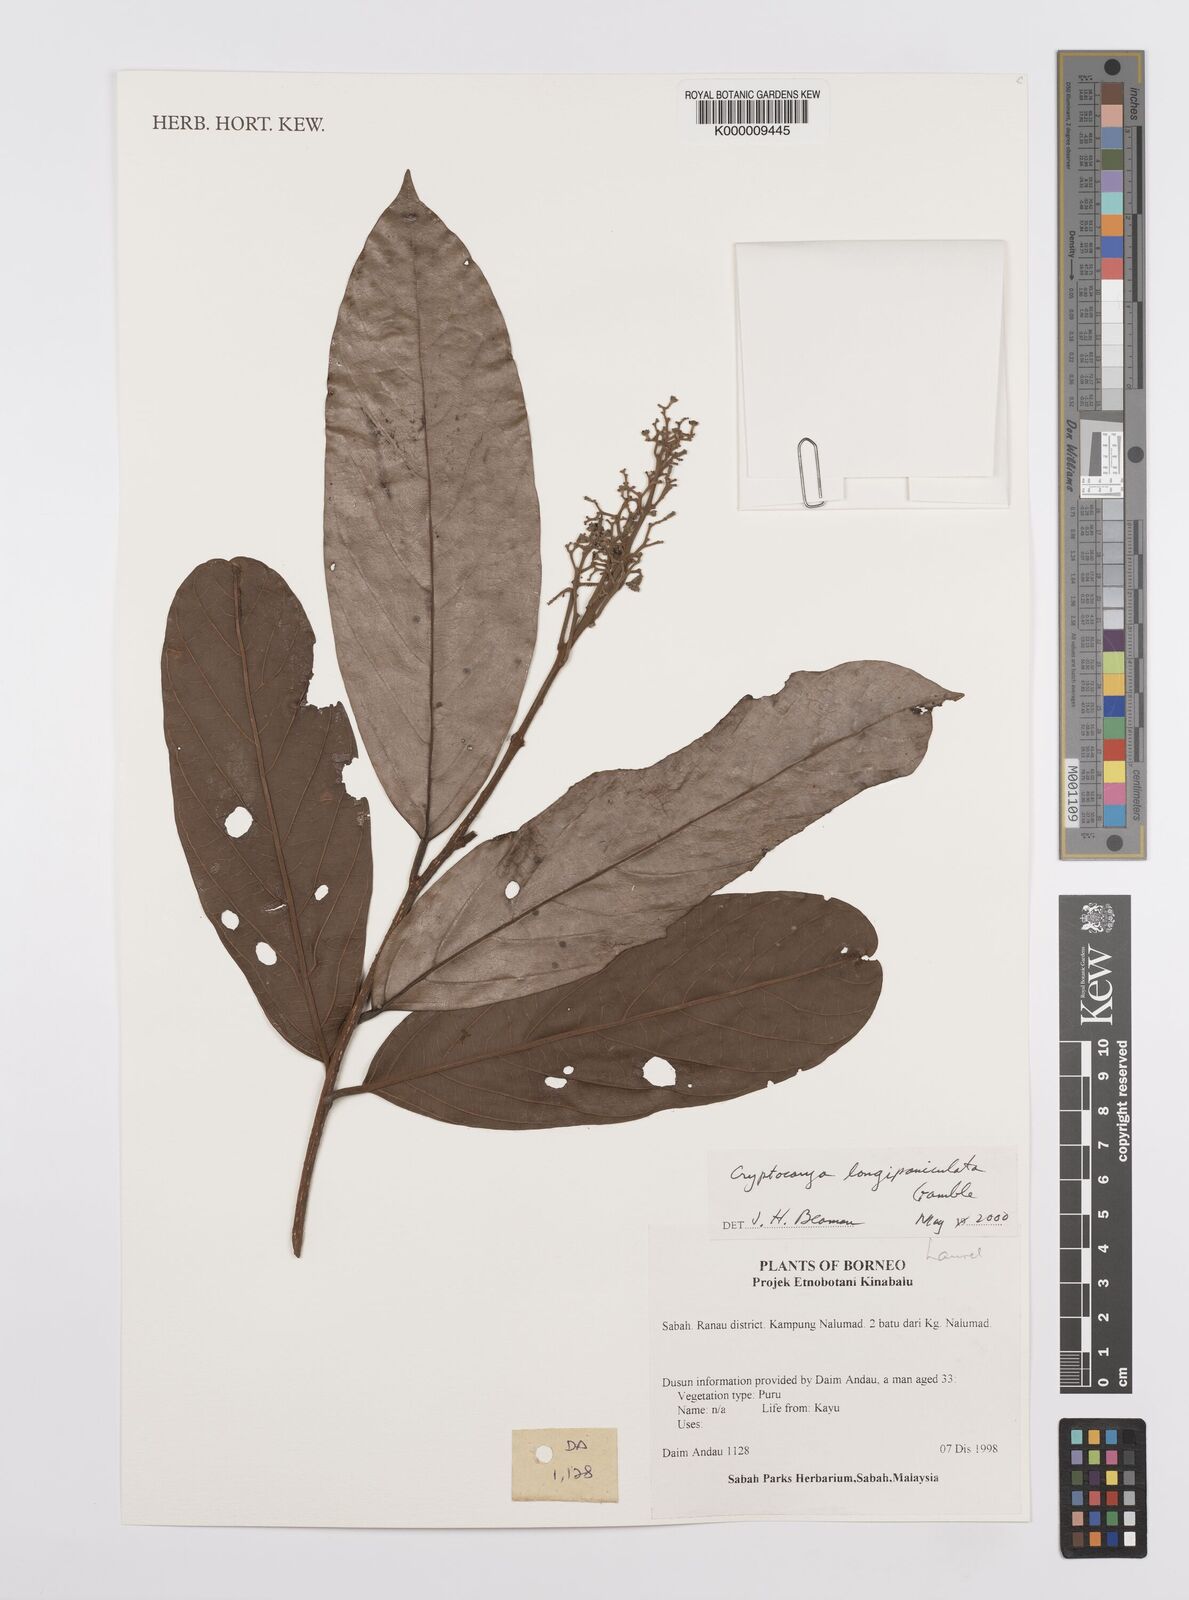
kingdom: Plantae
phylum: Tracheophyta
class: Magnoliopsida
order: Laurales
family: Lauraceae
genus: Cryptocarya
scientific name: Cryptocarya
